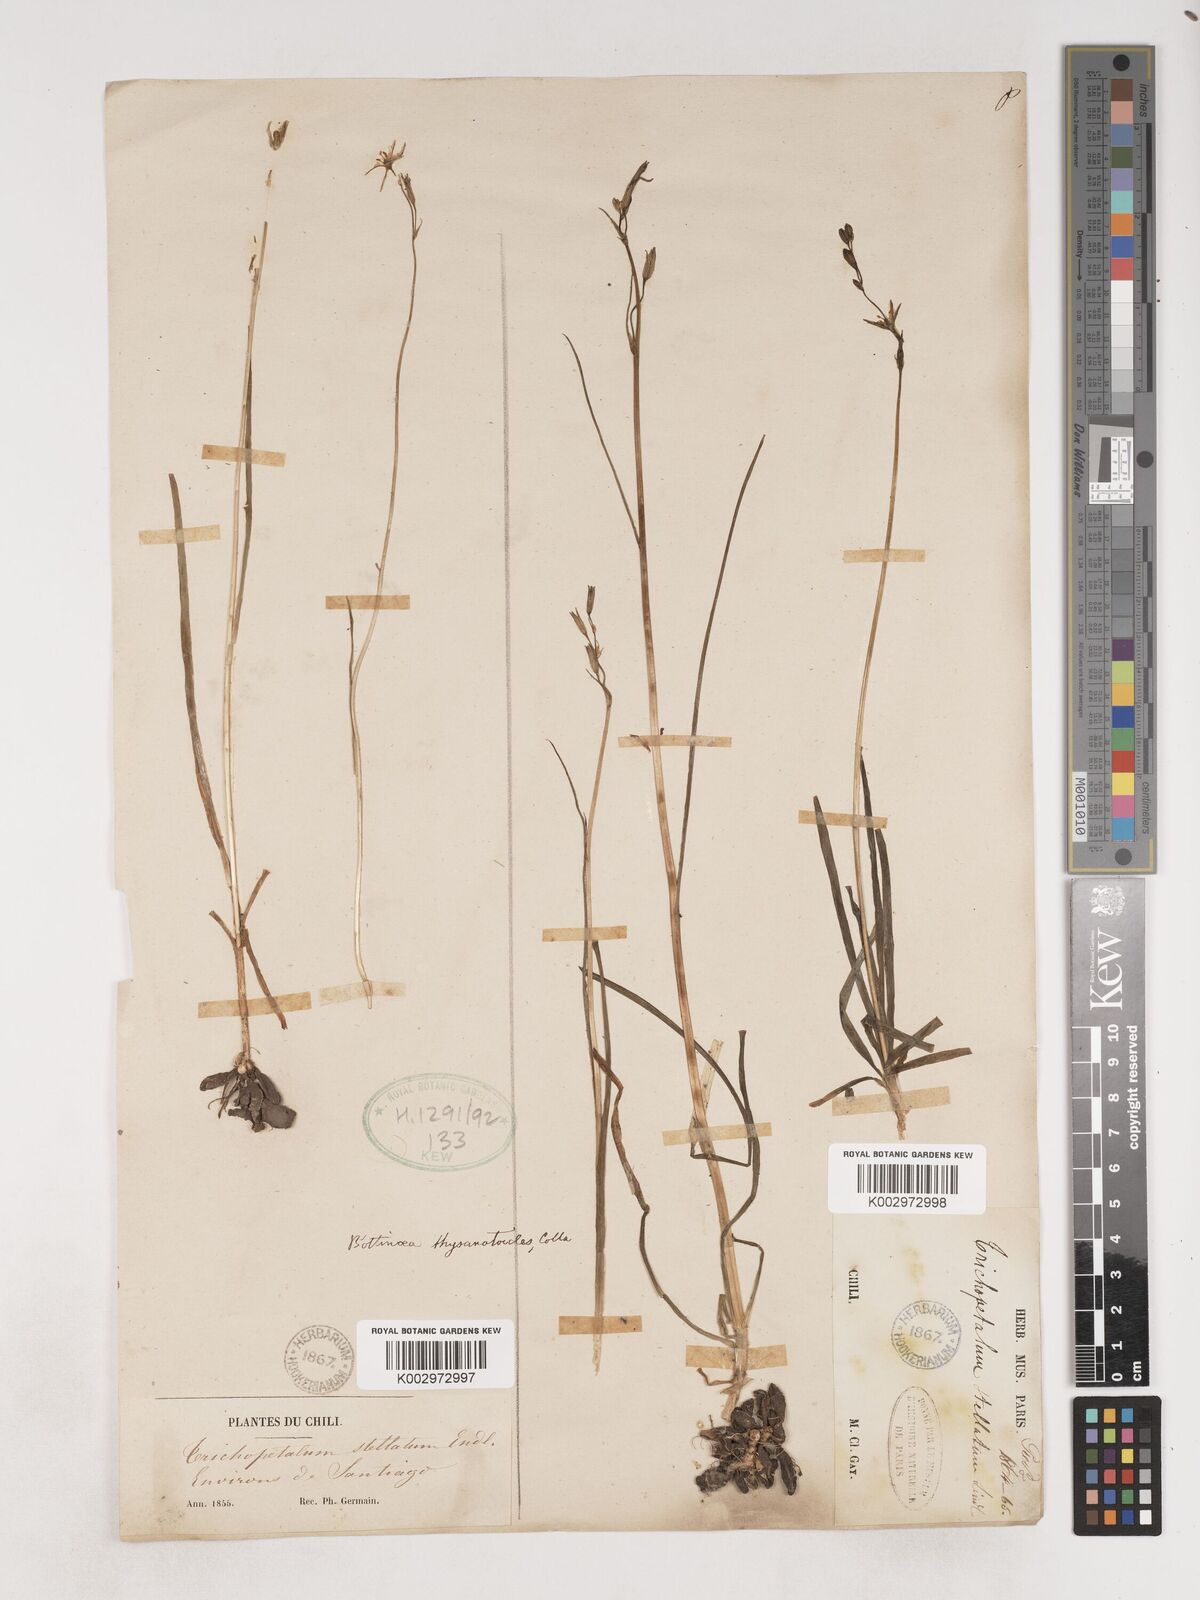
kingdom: Plantae
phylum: Tracheophyta
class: Liliopsida
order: Asparagales
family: Asparagaceae
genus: Trichopetalum
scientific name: Trichopetalum plumosum
